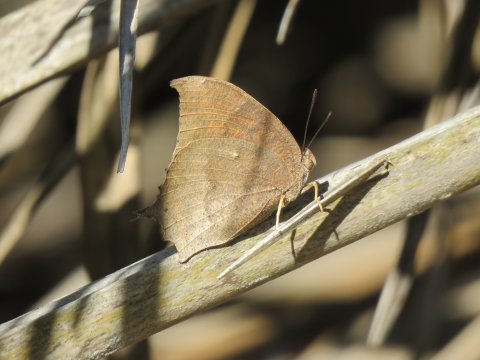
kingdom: Animalia
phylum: Arthropoda
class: Insecta
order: Lepidoptera
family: Nymphalidae
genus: Anaea
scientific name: Anaea aidea
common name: Tropical Leafwing
